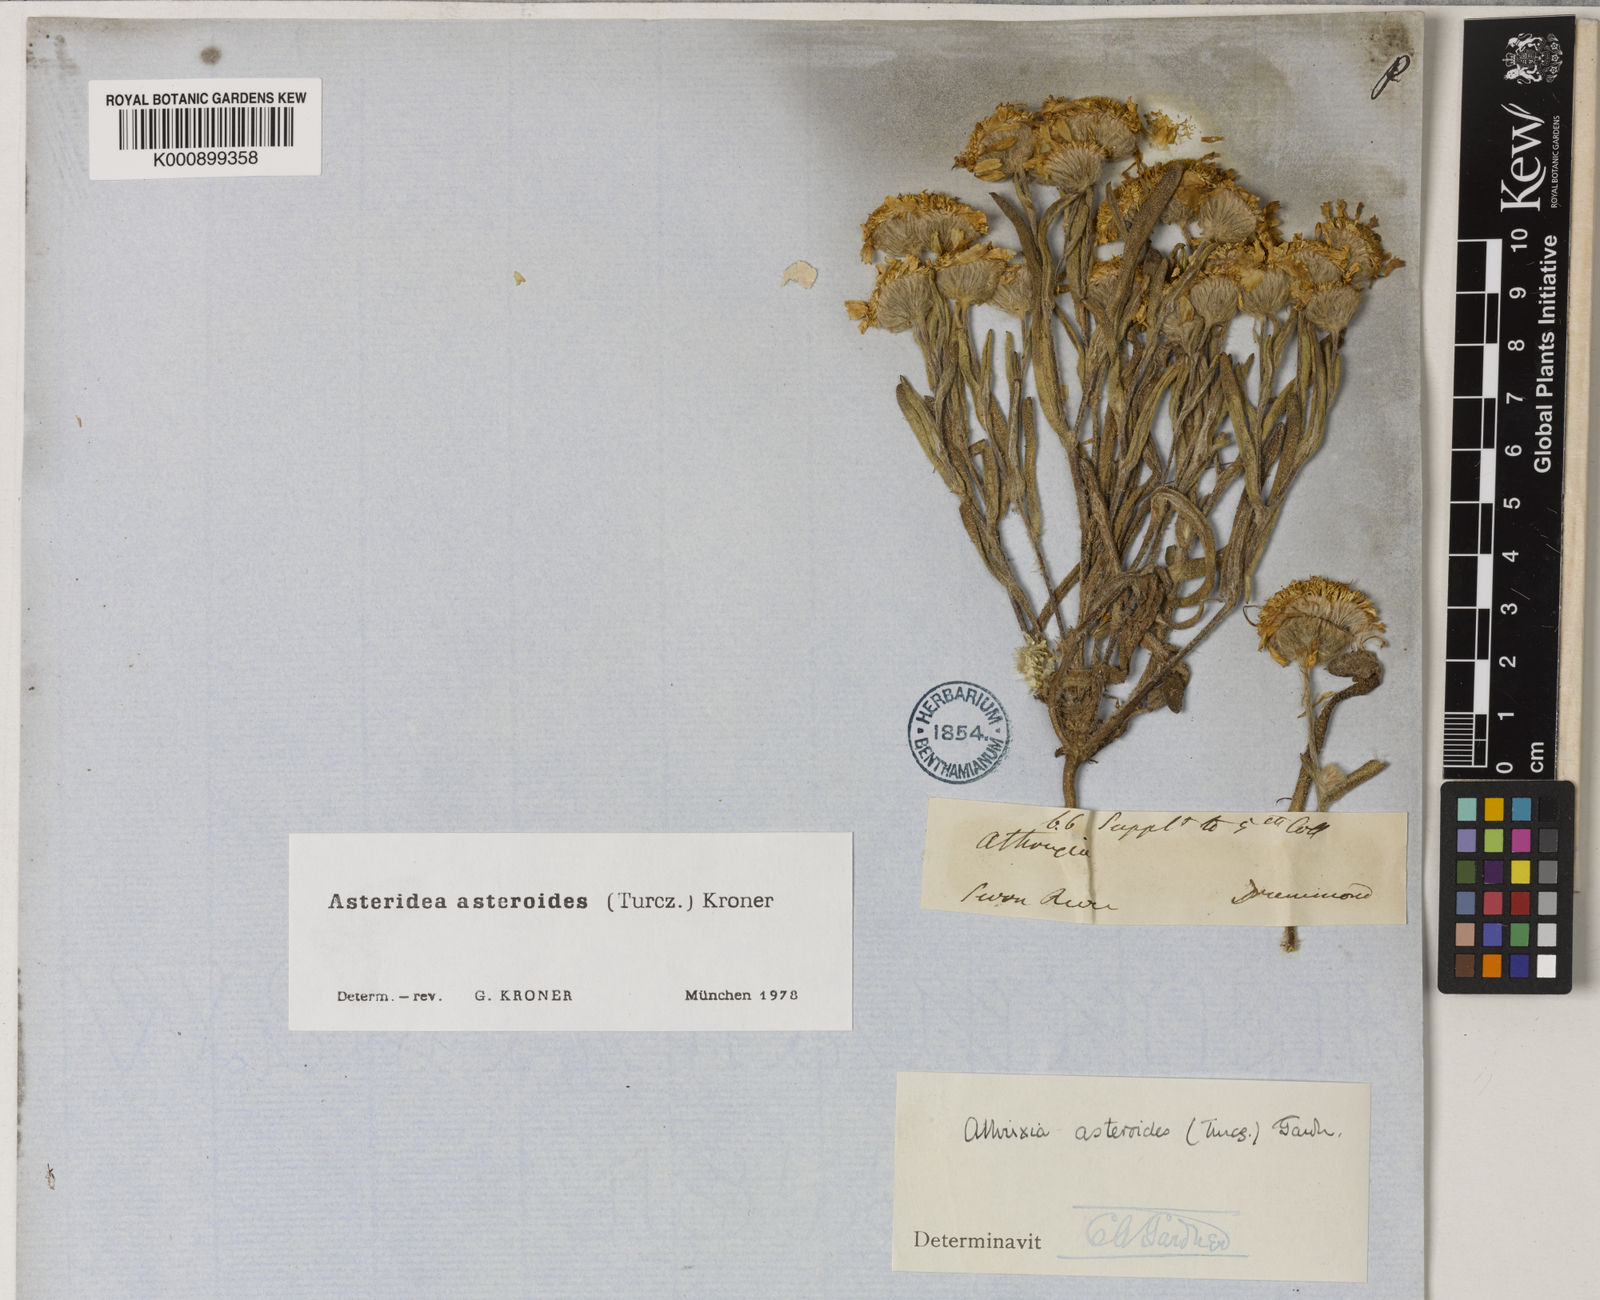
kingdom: Plantae
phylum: Tracheophyta
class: Magnoliopsida
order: Asterales
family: Asteraceae
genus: Asteridea
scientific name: Asteridea
